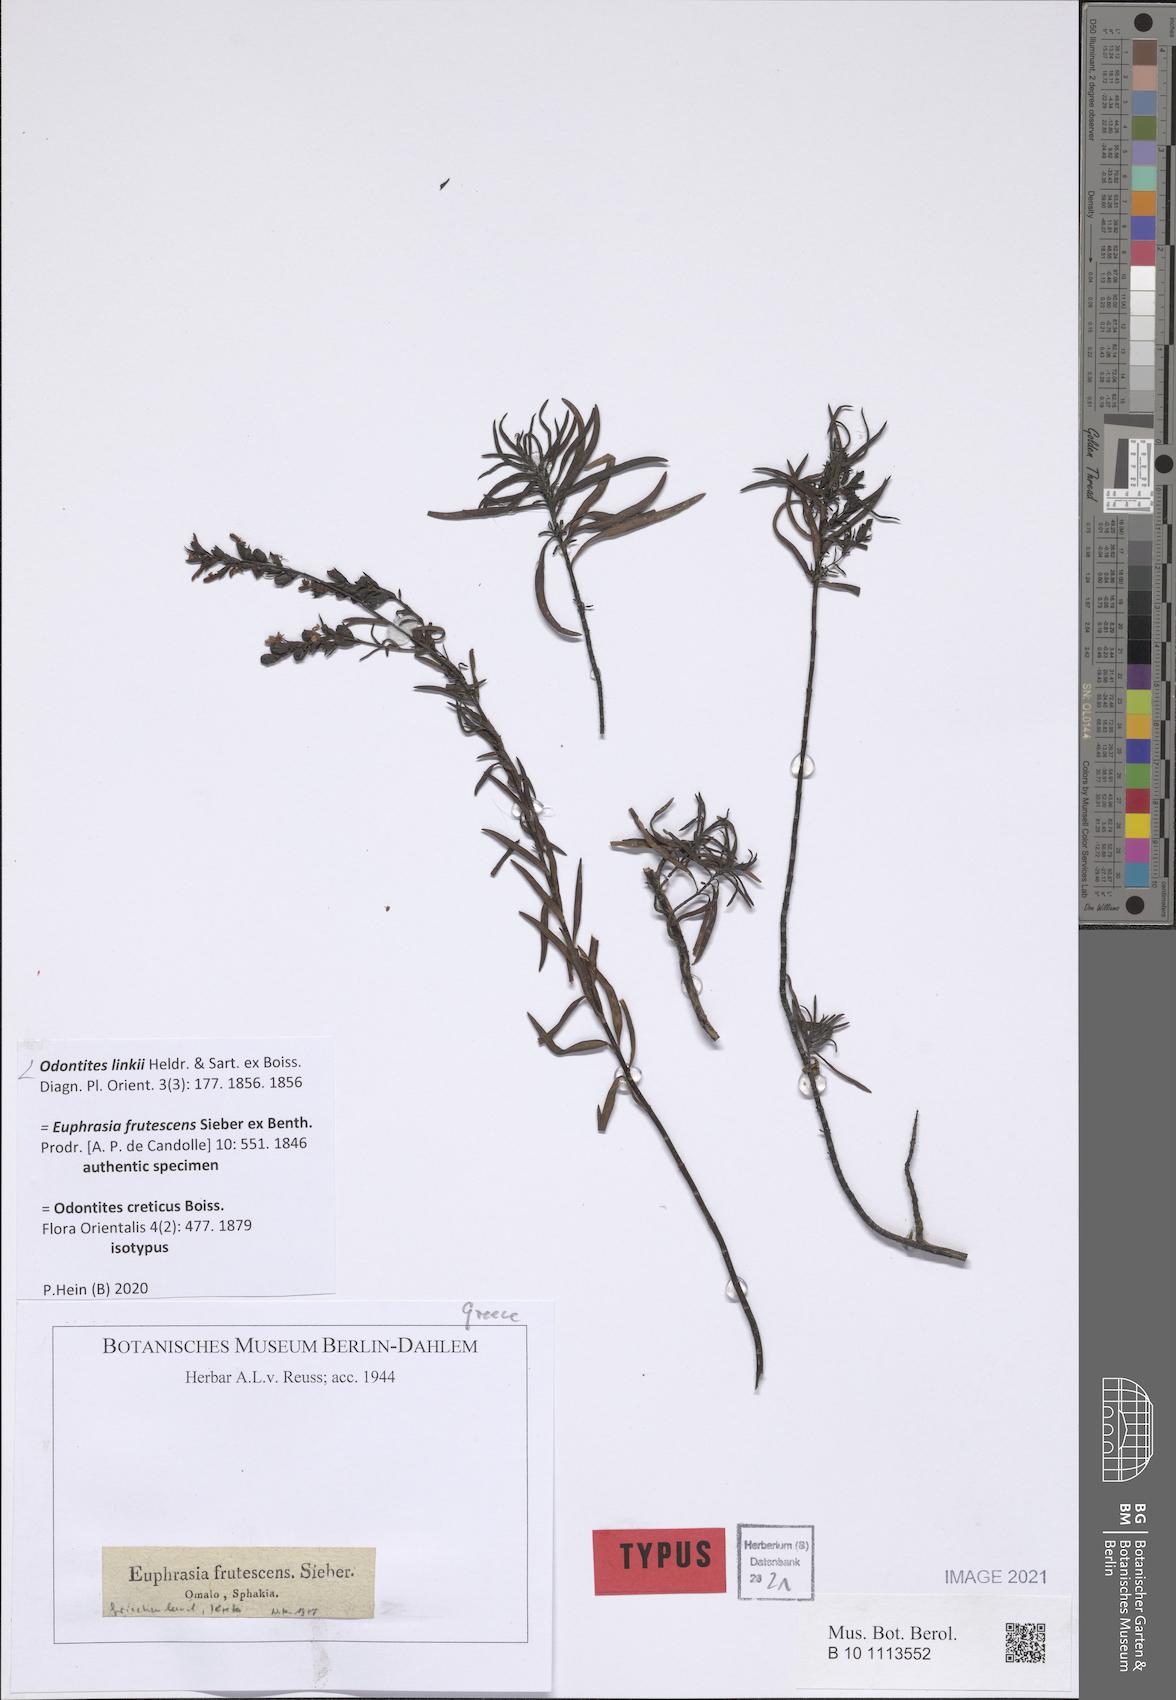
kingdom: Plantae
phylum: Tracheophyta
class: Magnoliopsida
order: Lamiales
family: Scrophulariaceae
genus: Odontites
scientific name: Odontites linkii
